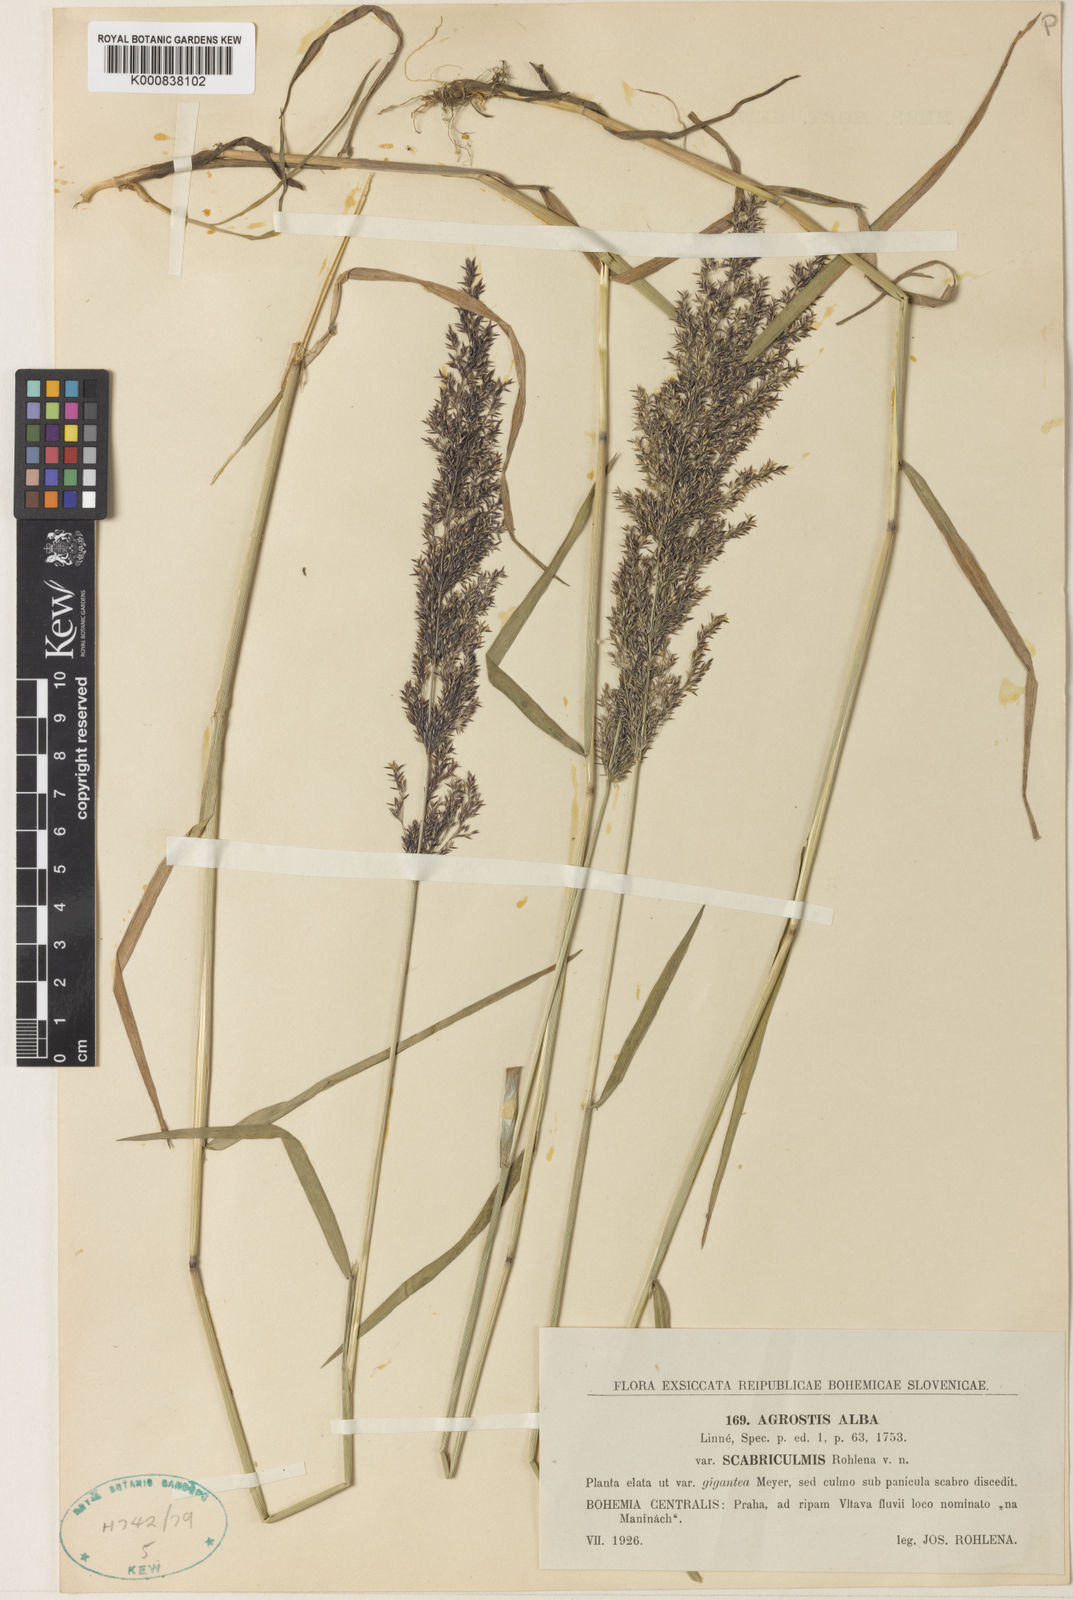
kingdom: Plantae
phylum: Tracheophyta
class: Liliopsida
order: Poales
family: Poaceae
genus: Agrostis
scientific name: Agrostis stolonifera
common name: Creeping bentgrass
